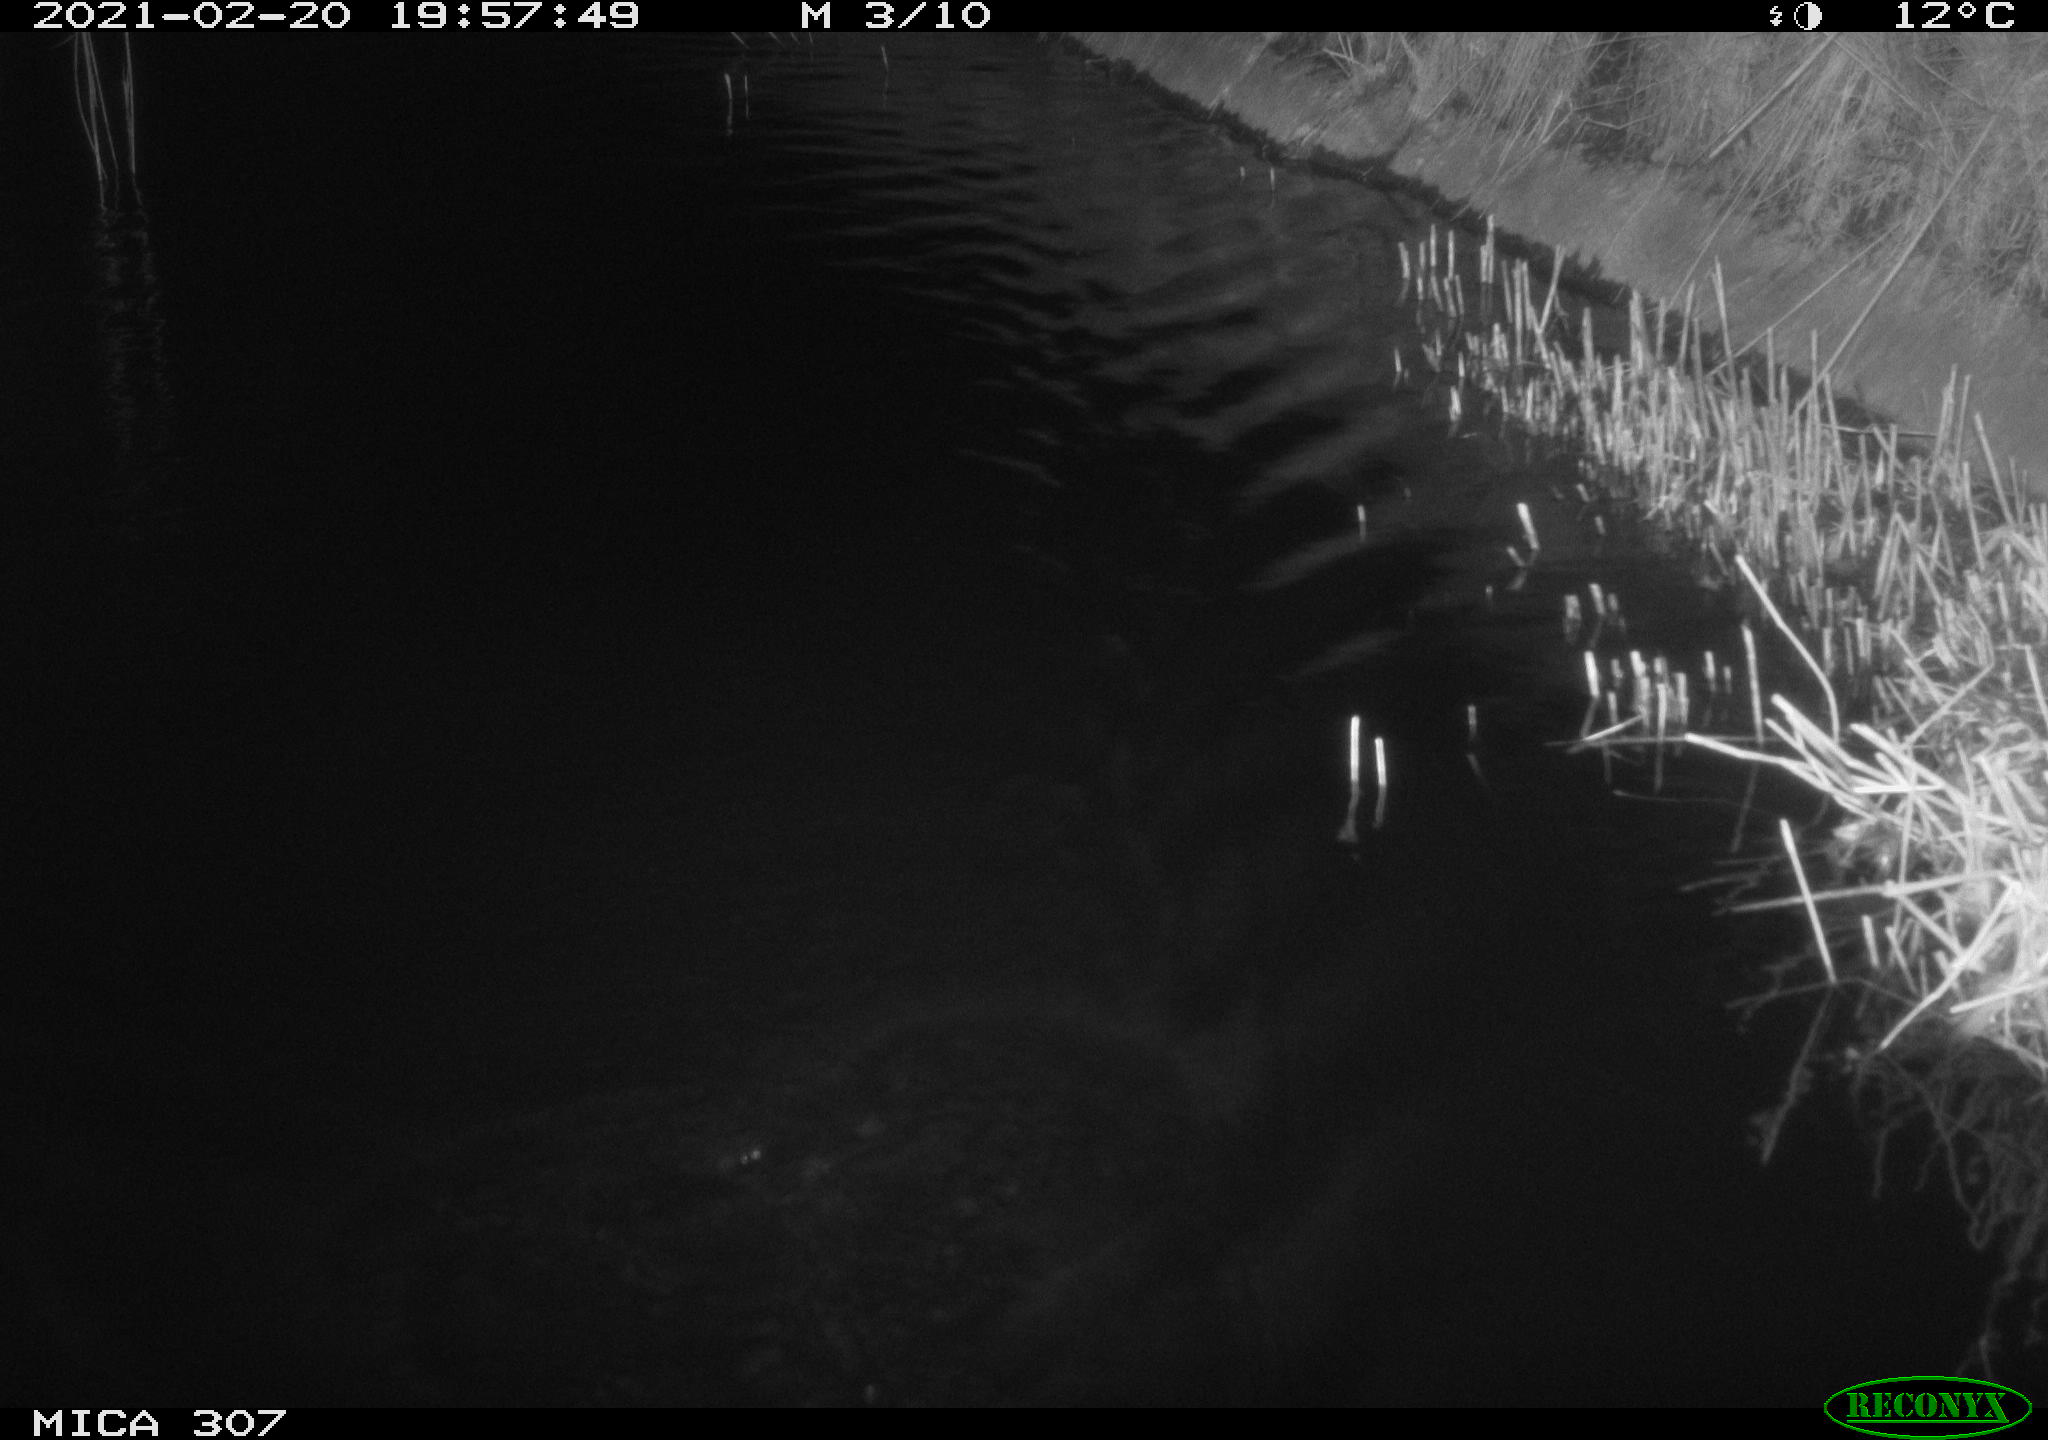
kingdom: Animalia
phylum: Chordata
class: Mammalia
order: Rodentia
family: Cricetidae
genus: Ondatra
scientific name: Ondatra zibethicus
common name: Muskrat
